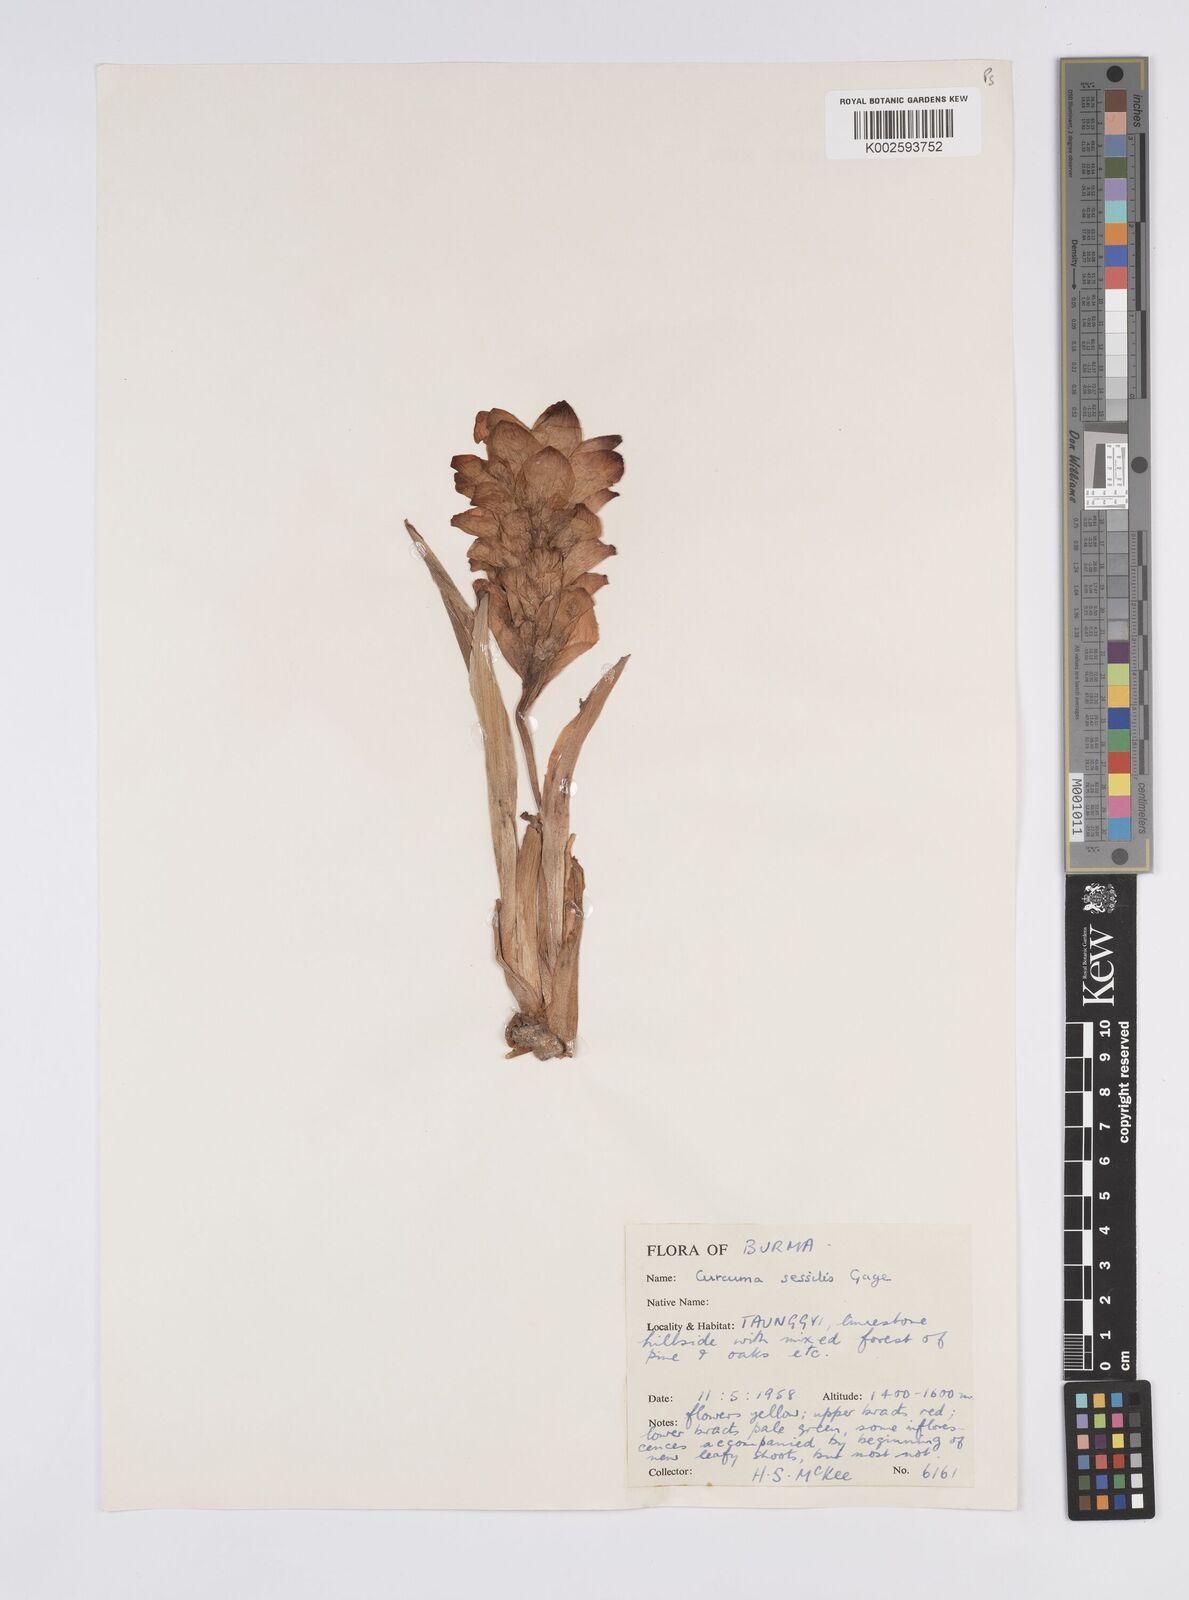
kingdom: Plantae
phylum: Tracheophyta
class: Liliopsida
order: Zingiberales
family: Zingiberaceae
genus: Curcuma
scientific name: Curcuma sessilis
